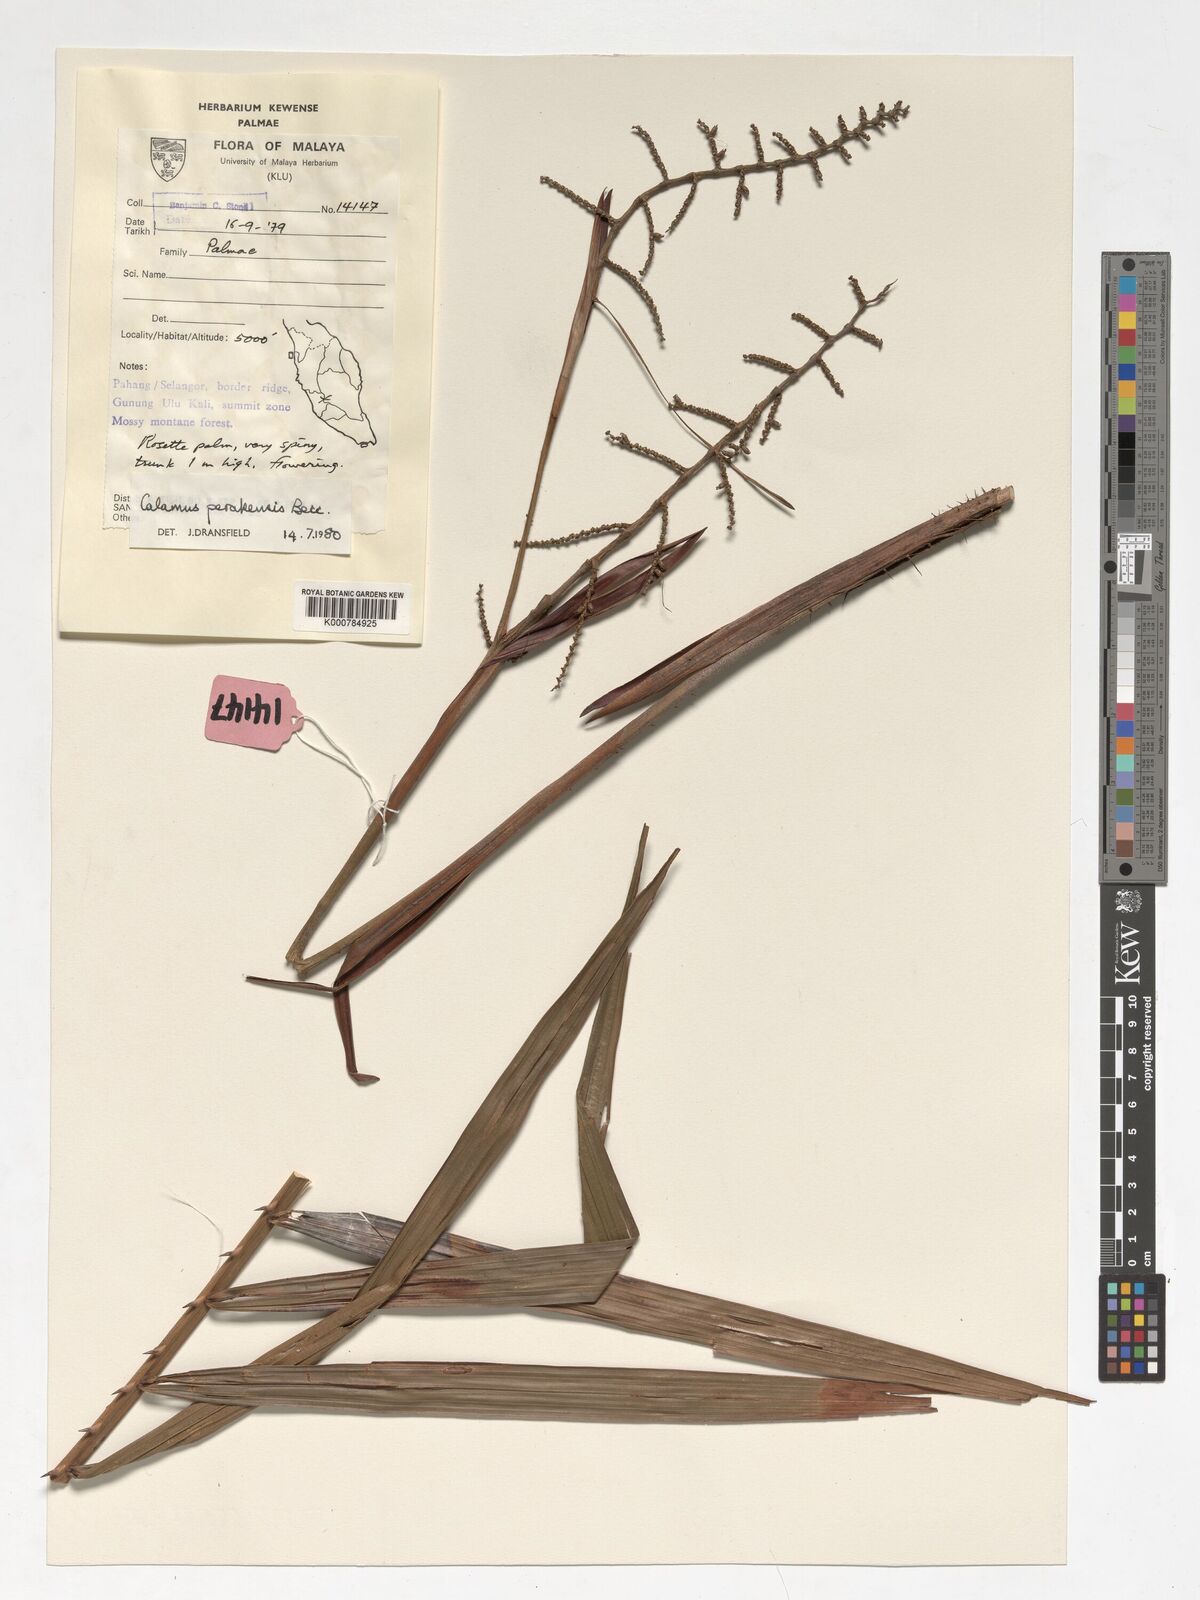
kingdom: Plantae
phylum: Tracheophyta
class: Liliopsida
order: Arecales
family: Arecaceae
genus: Calamus
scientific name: Calamus perakensis
